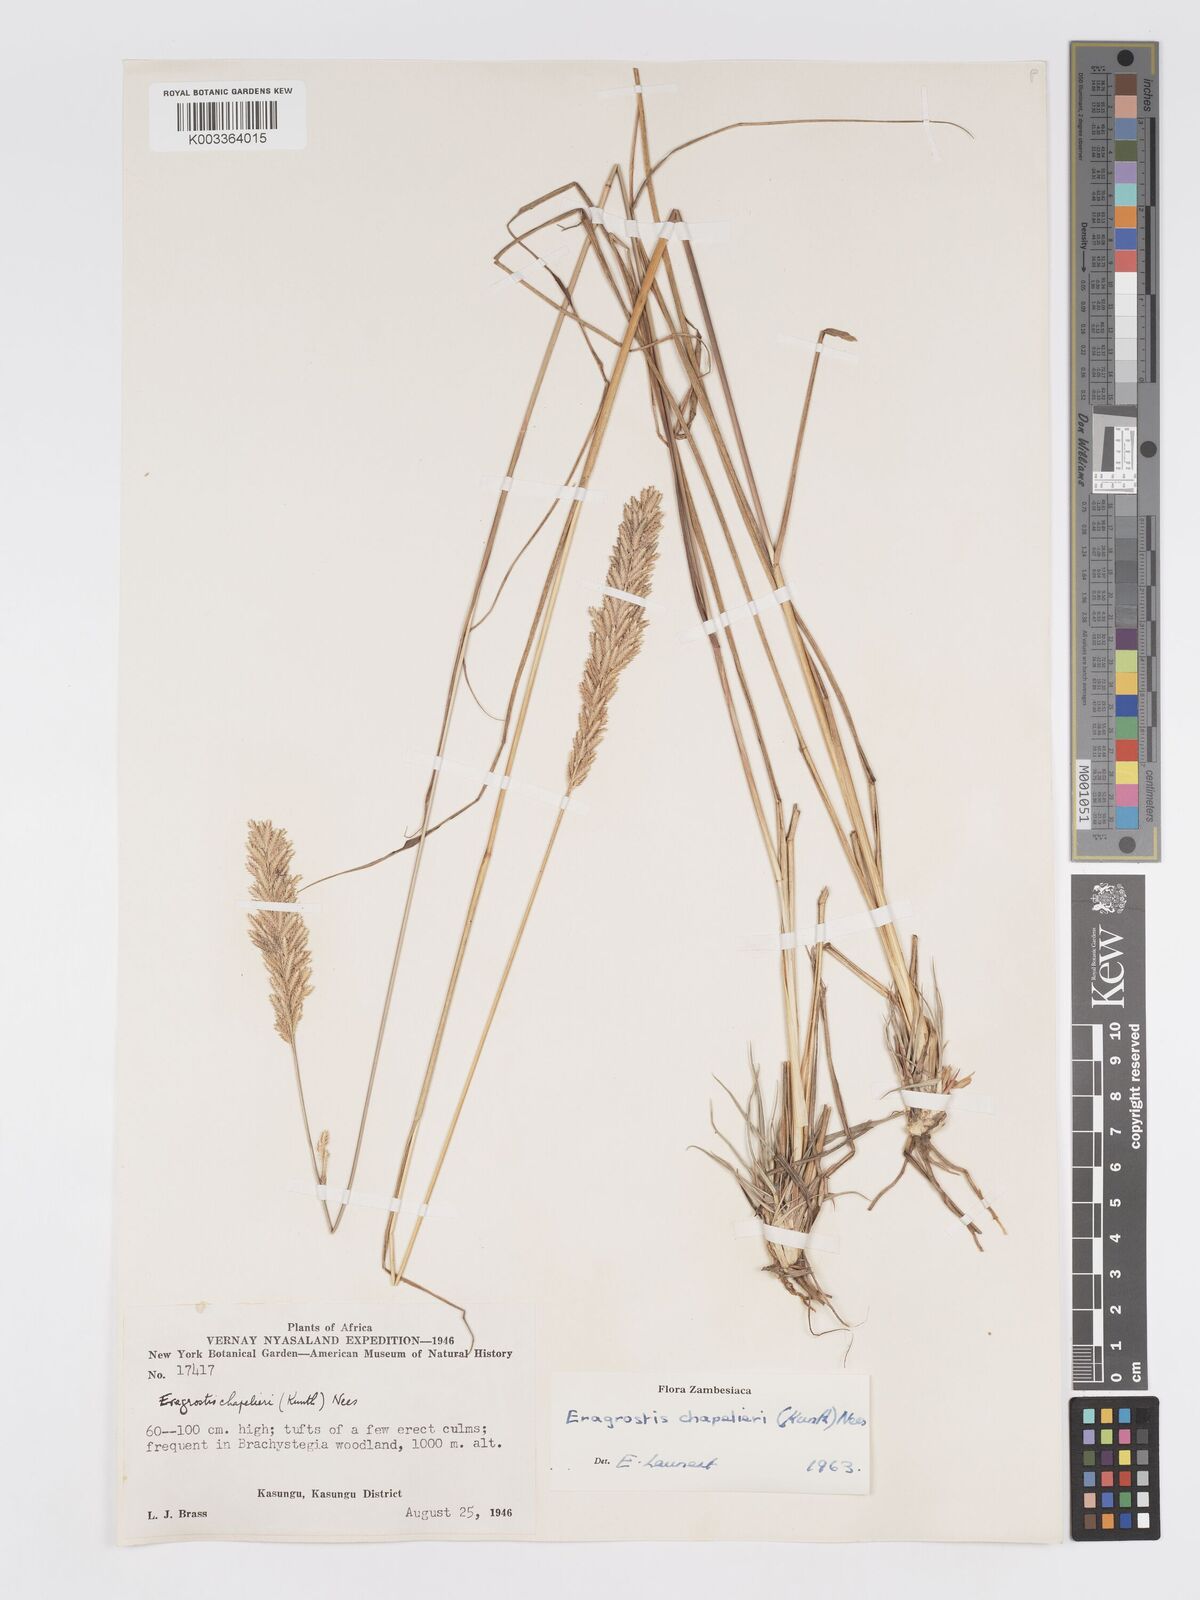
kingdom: Plantae
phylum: Tracheophyta
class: Liliopsida
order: Poales
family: Poaceae
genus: Eragrostis
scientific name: Eragrostis chapelieri
